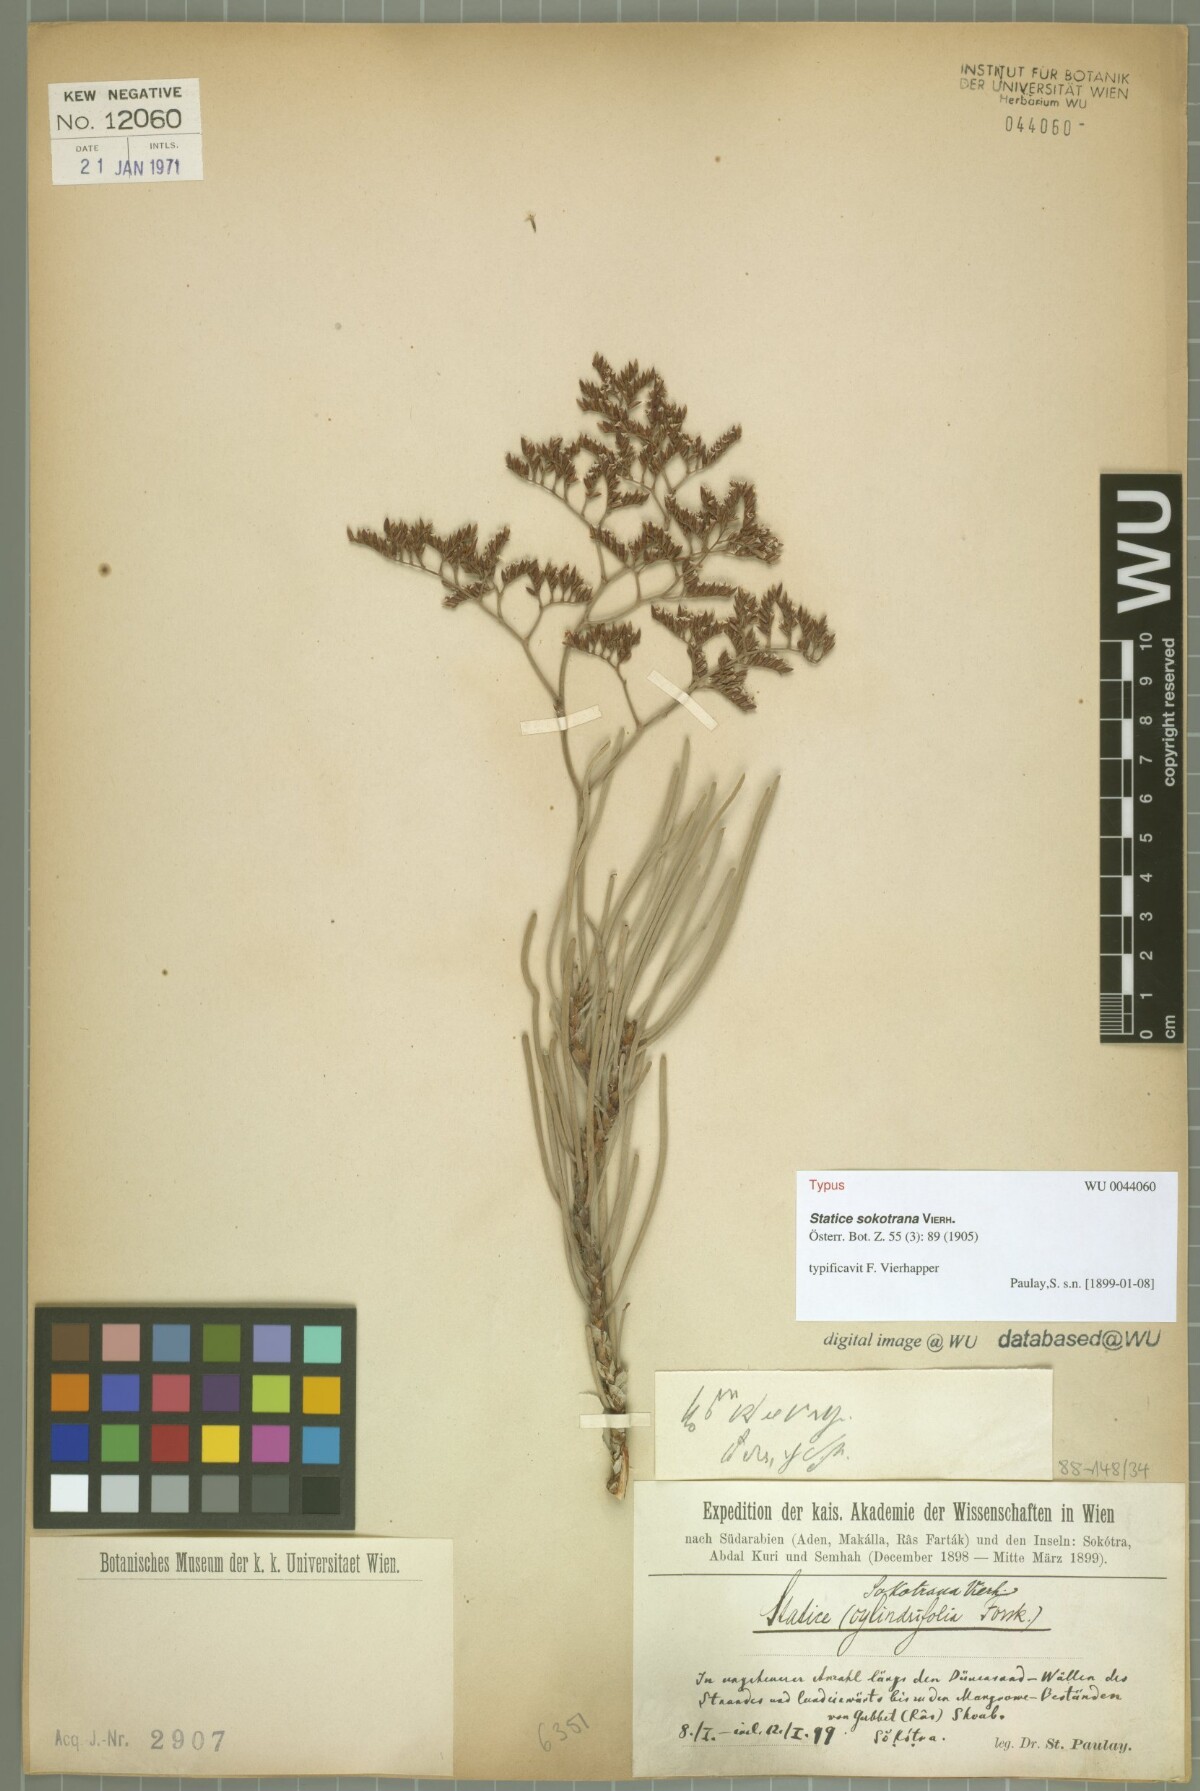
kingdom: Plantae
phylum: Tracheophyta
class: Magnoliopsida
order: Caryophyllales
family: Plumbaginaceae
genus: Limonium
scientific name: Limonium sokotranum
